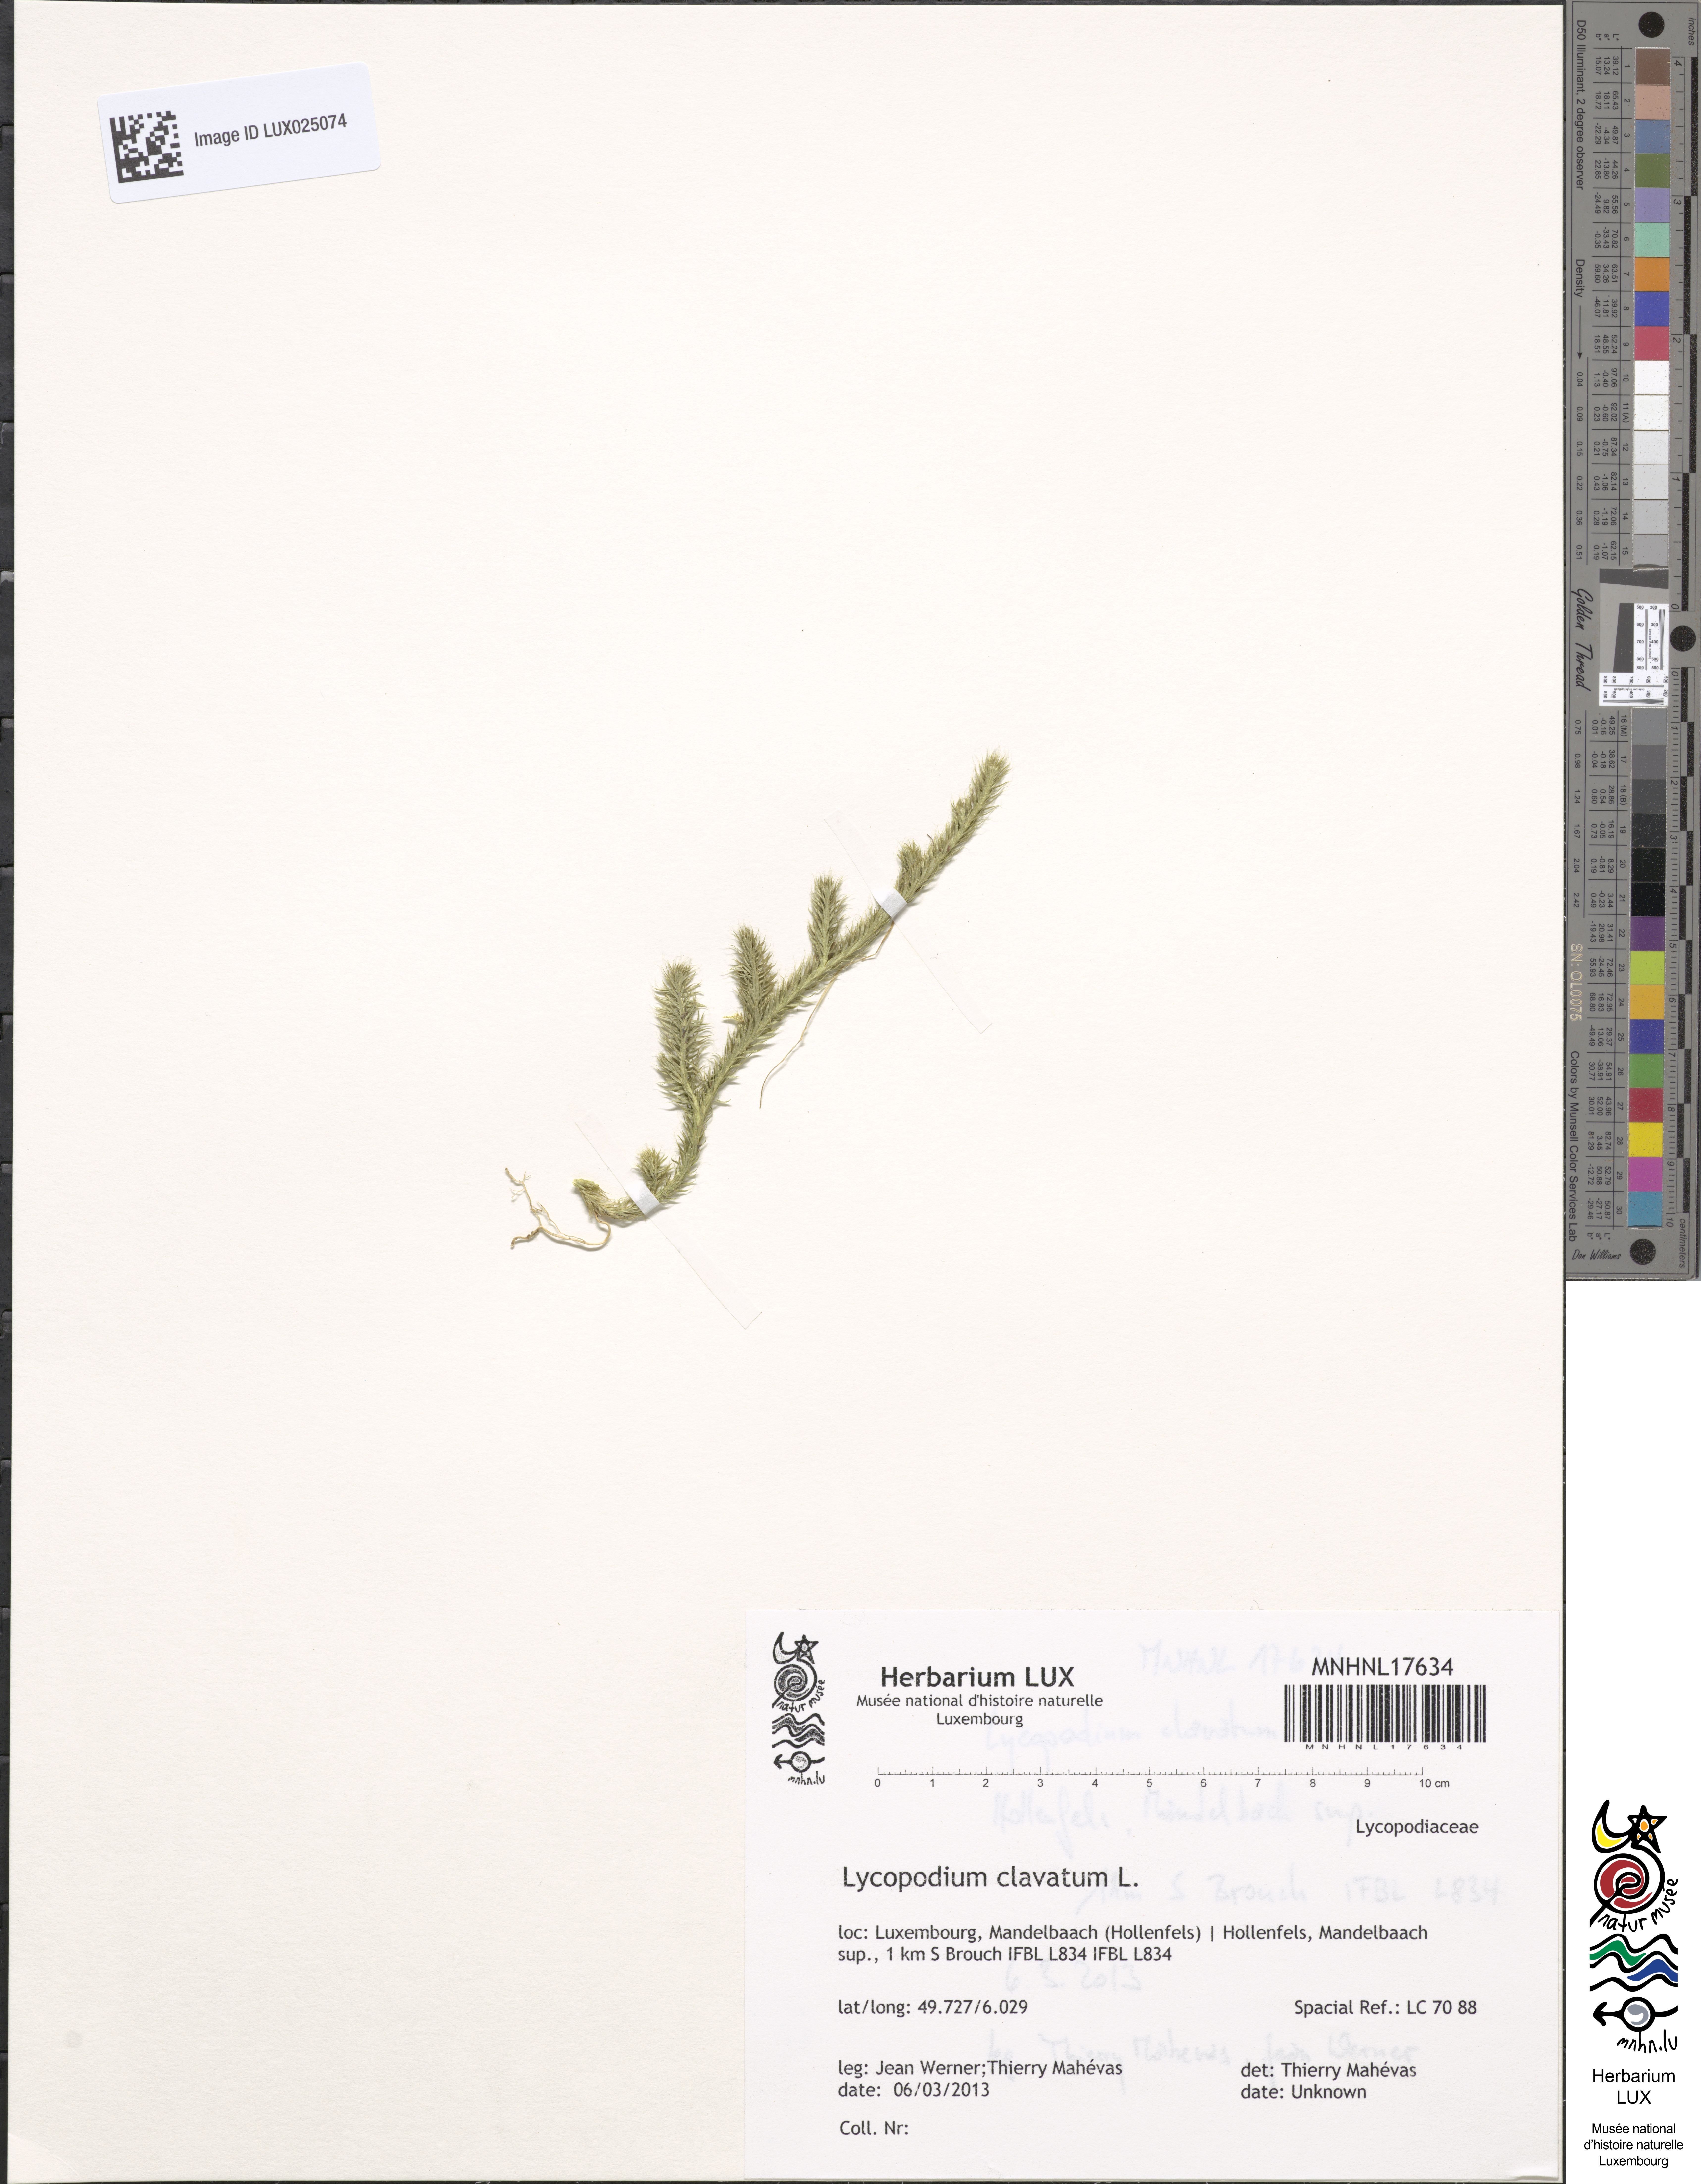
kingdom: Plantae
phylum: Tracheophyta
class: Lycopodiopsida
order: Lycopodiales
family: Lycopodiaceae
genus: Lycopodium
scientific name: Lycopodium clavatum
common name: Stag's-horn clubmoss
